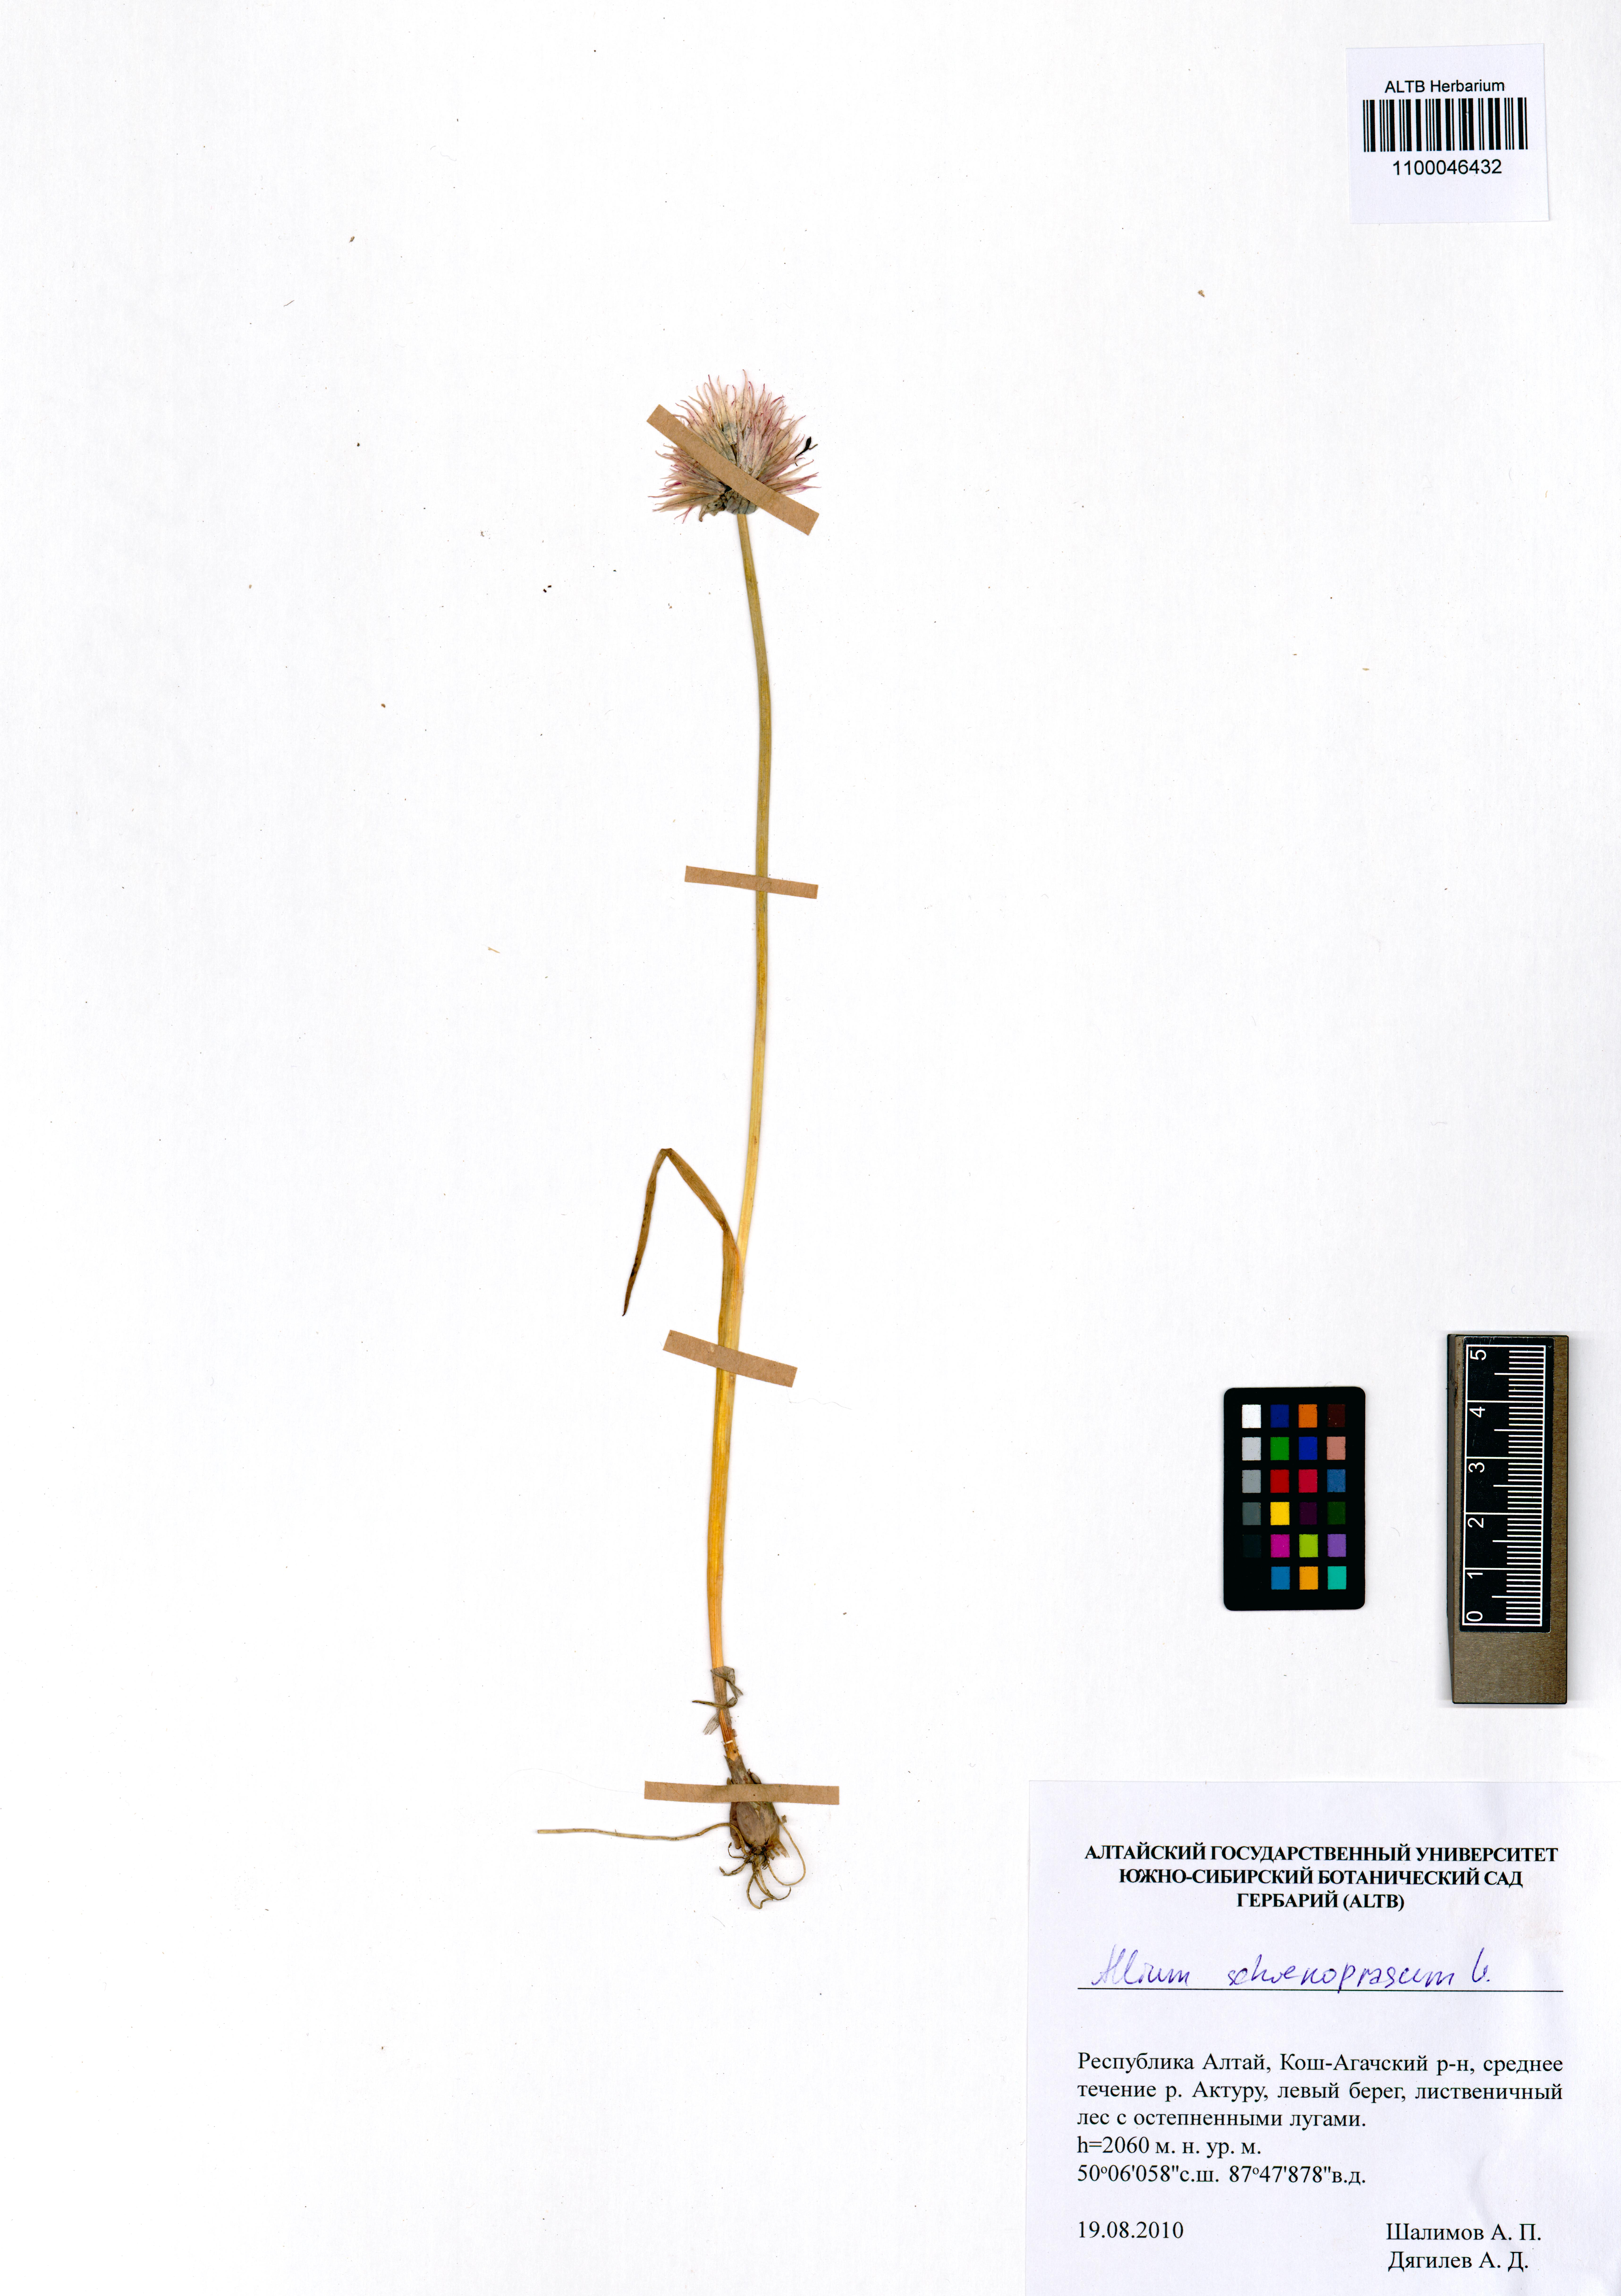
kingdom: Plantae
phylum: Tracheophyta
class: Liliopsida
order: Asparagales
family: Amaryllidaceae
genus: Allium
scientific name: Allium schoenoprasum
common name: Chives
